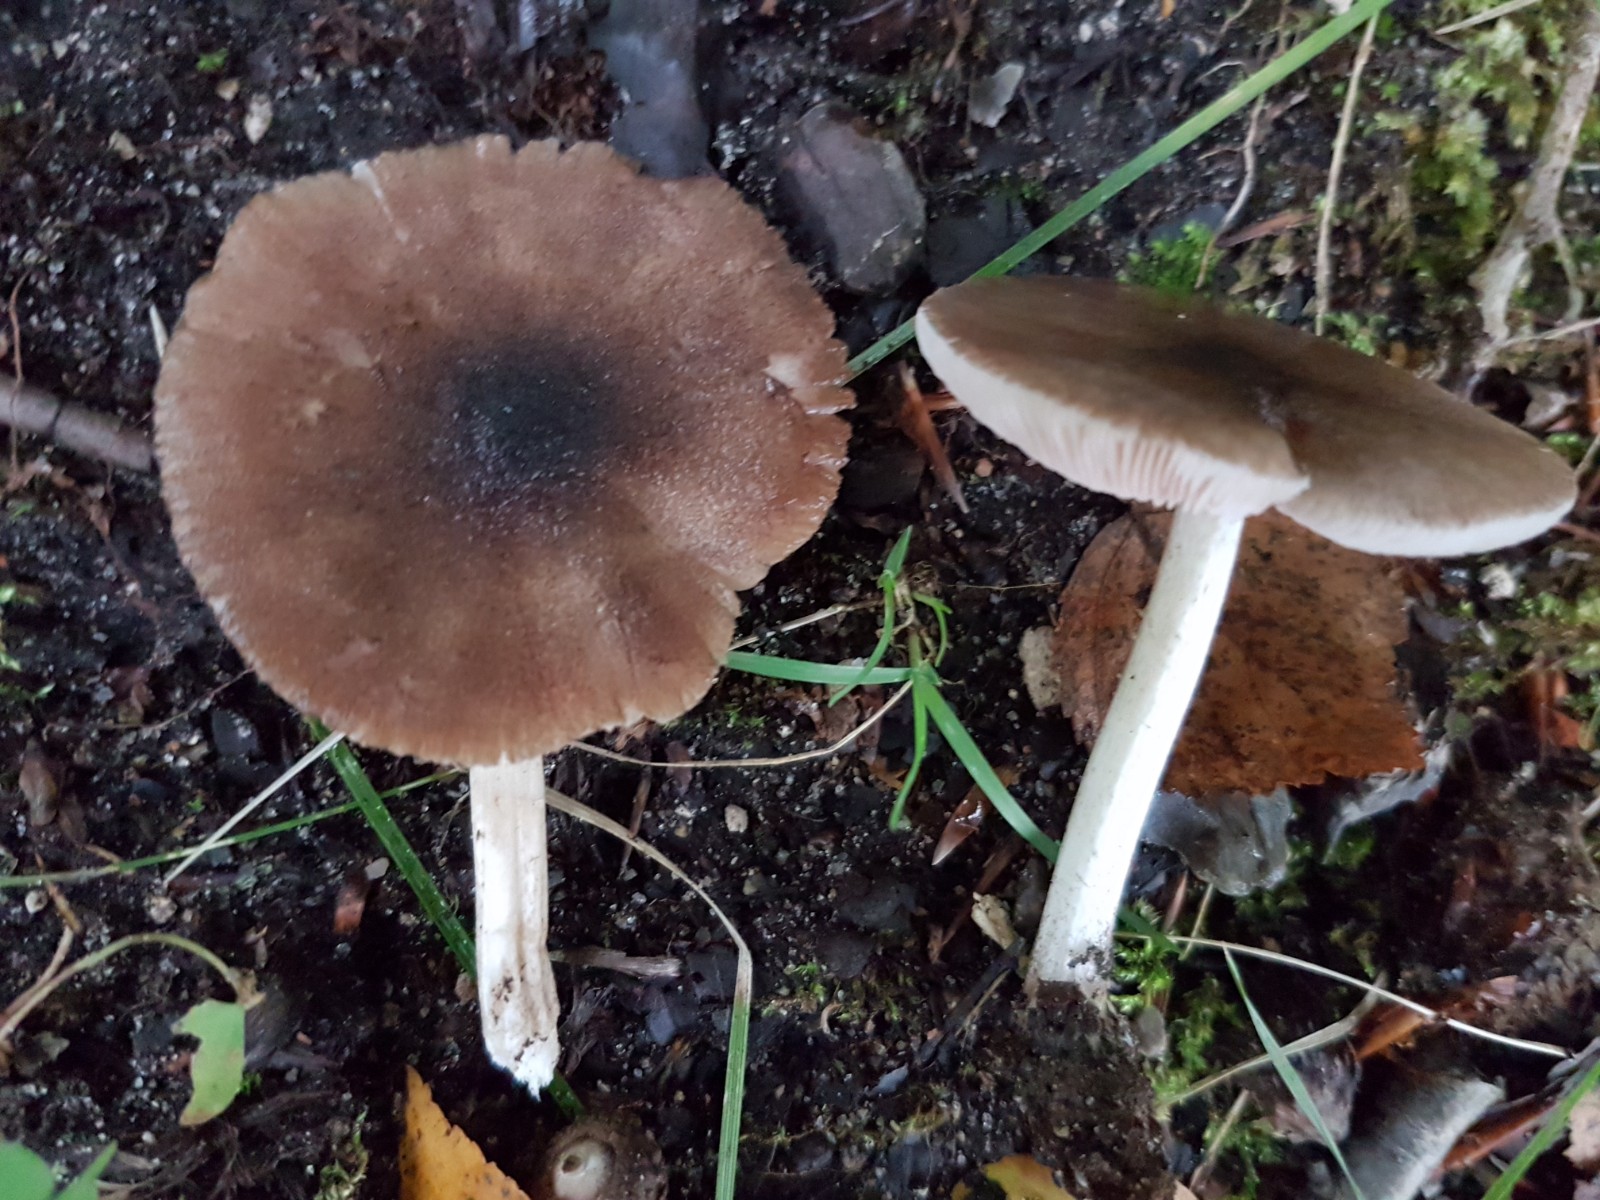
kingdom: Fungi
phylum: Basidiomycota
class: Agaricomycetes
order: Agaricales
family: Pluteaceae
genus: Pluteus
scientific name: Pluteus
